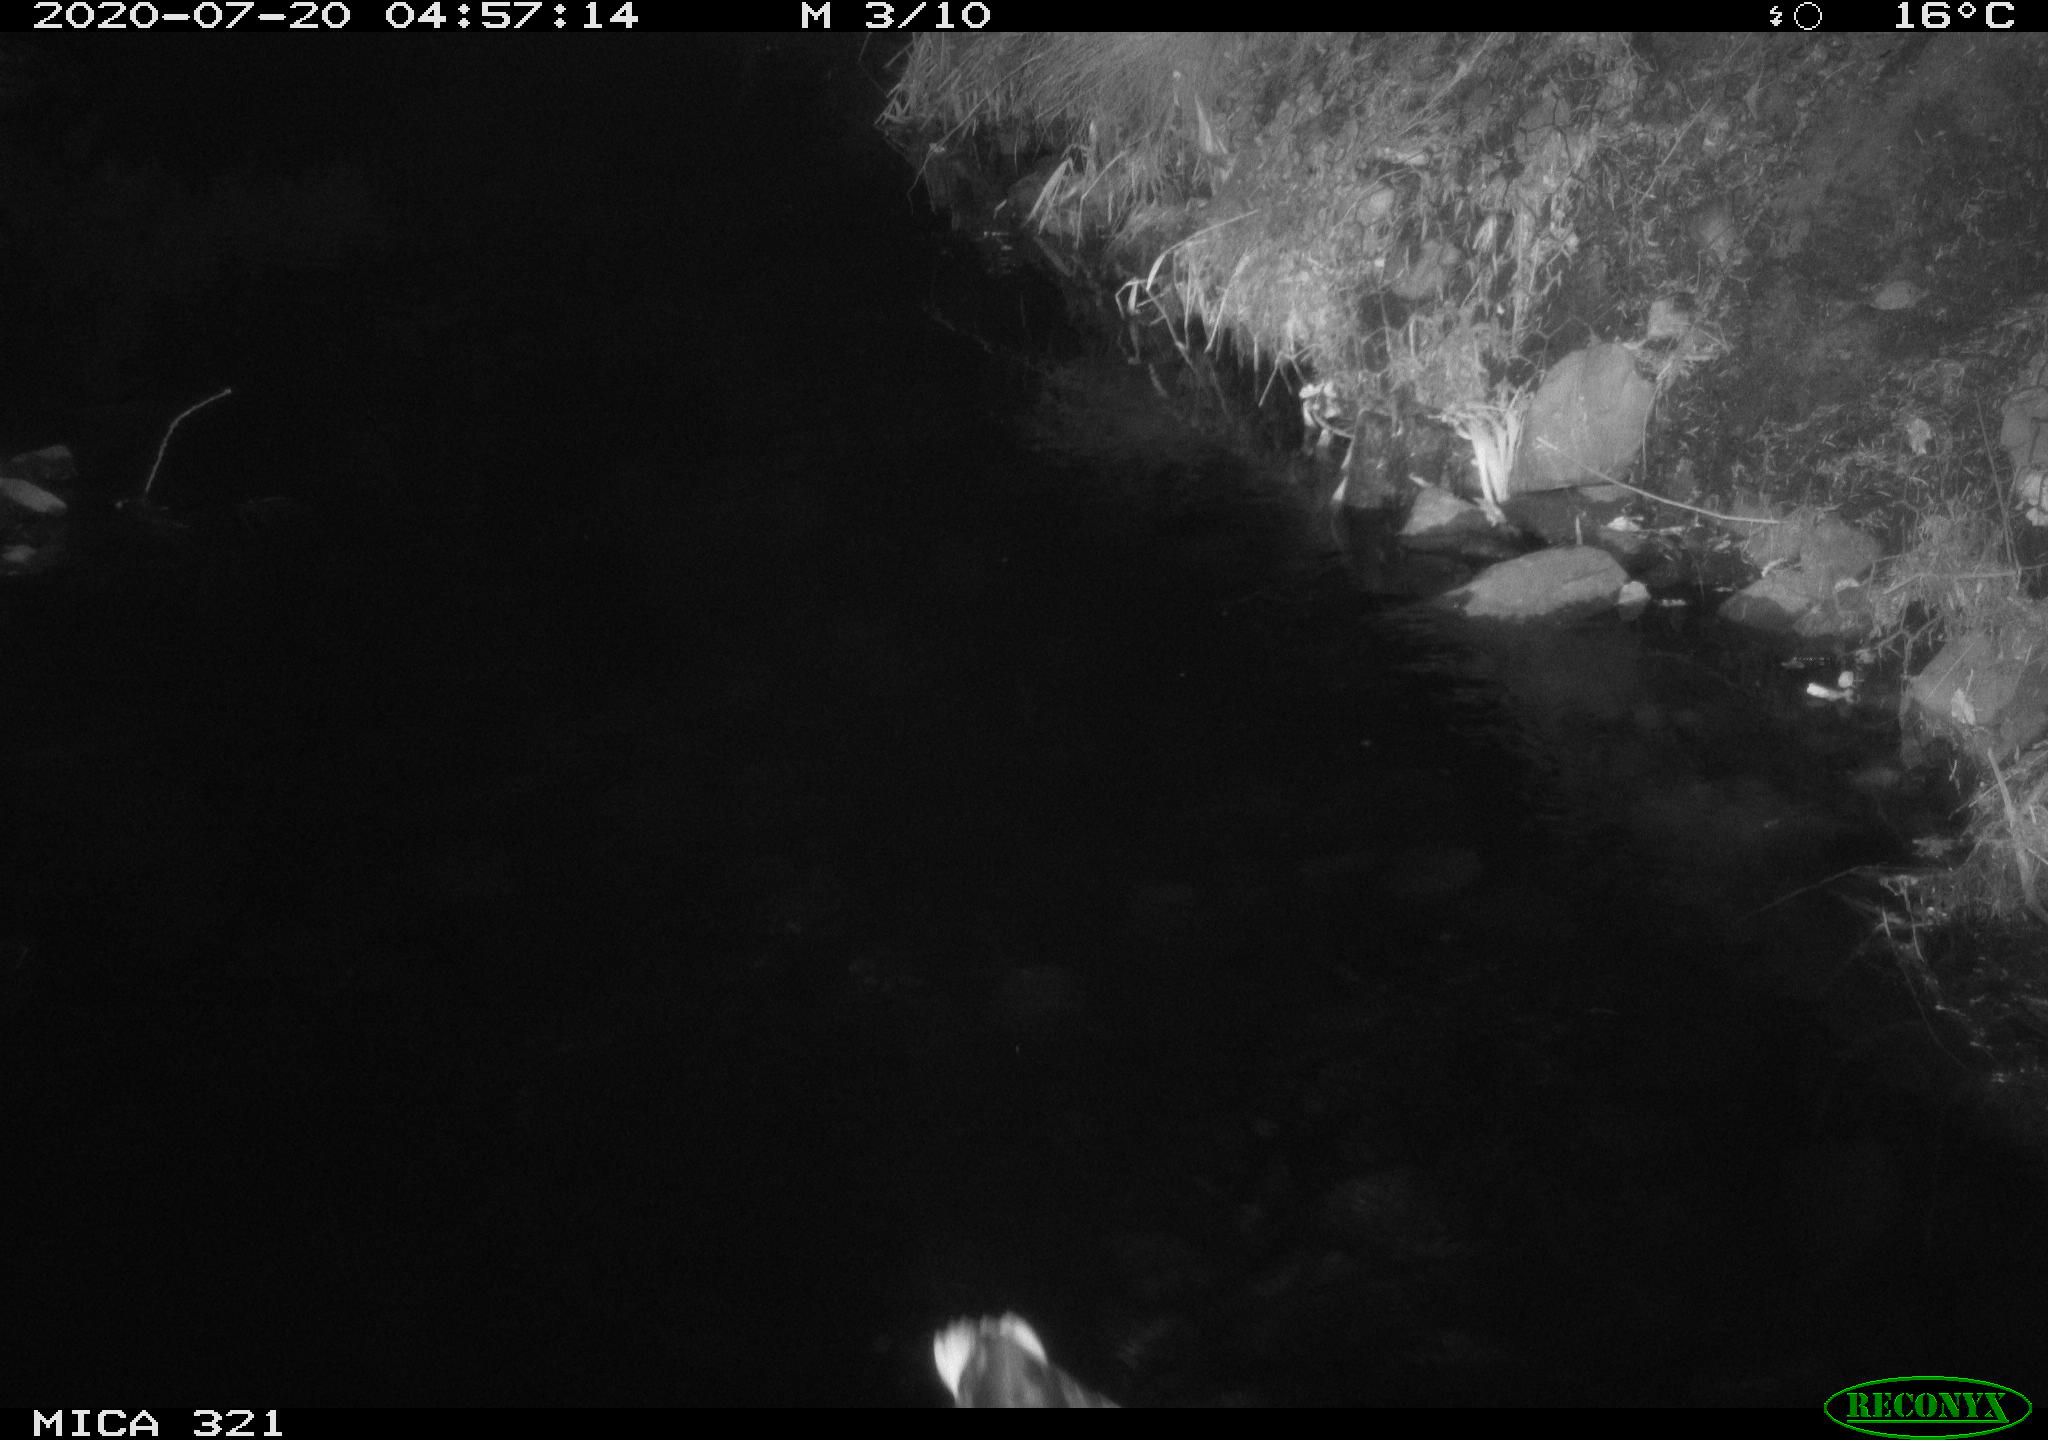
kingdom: Animalia
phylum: Chordata
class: Aves
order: Anseriformes
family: Anatidae
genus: Anas
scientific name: Anas platyrhynchos
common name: Mallard
